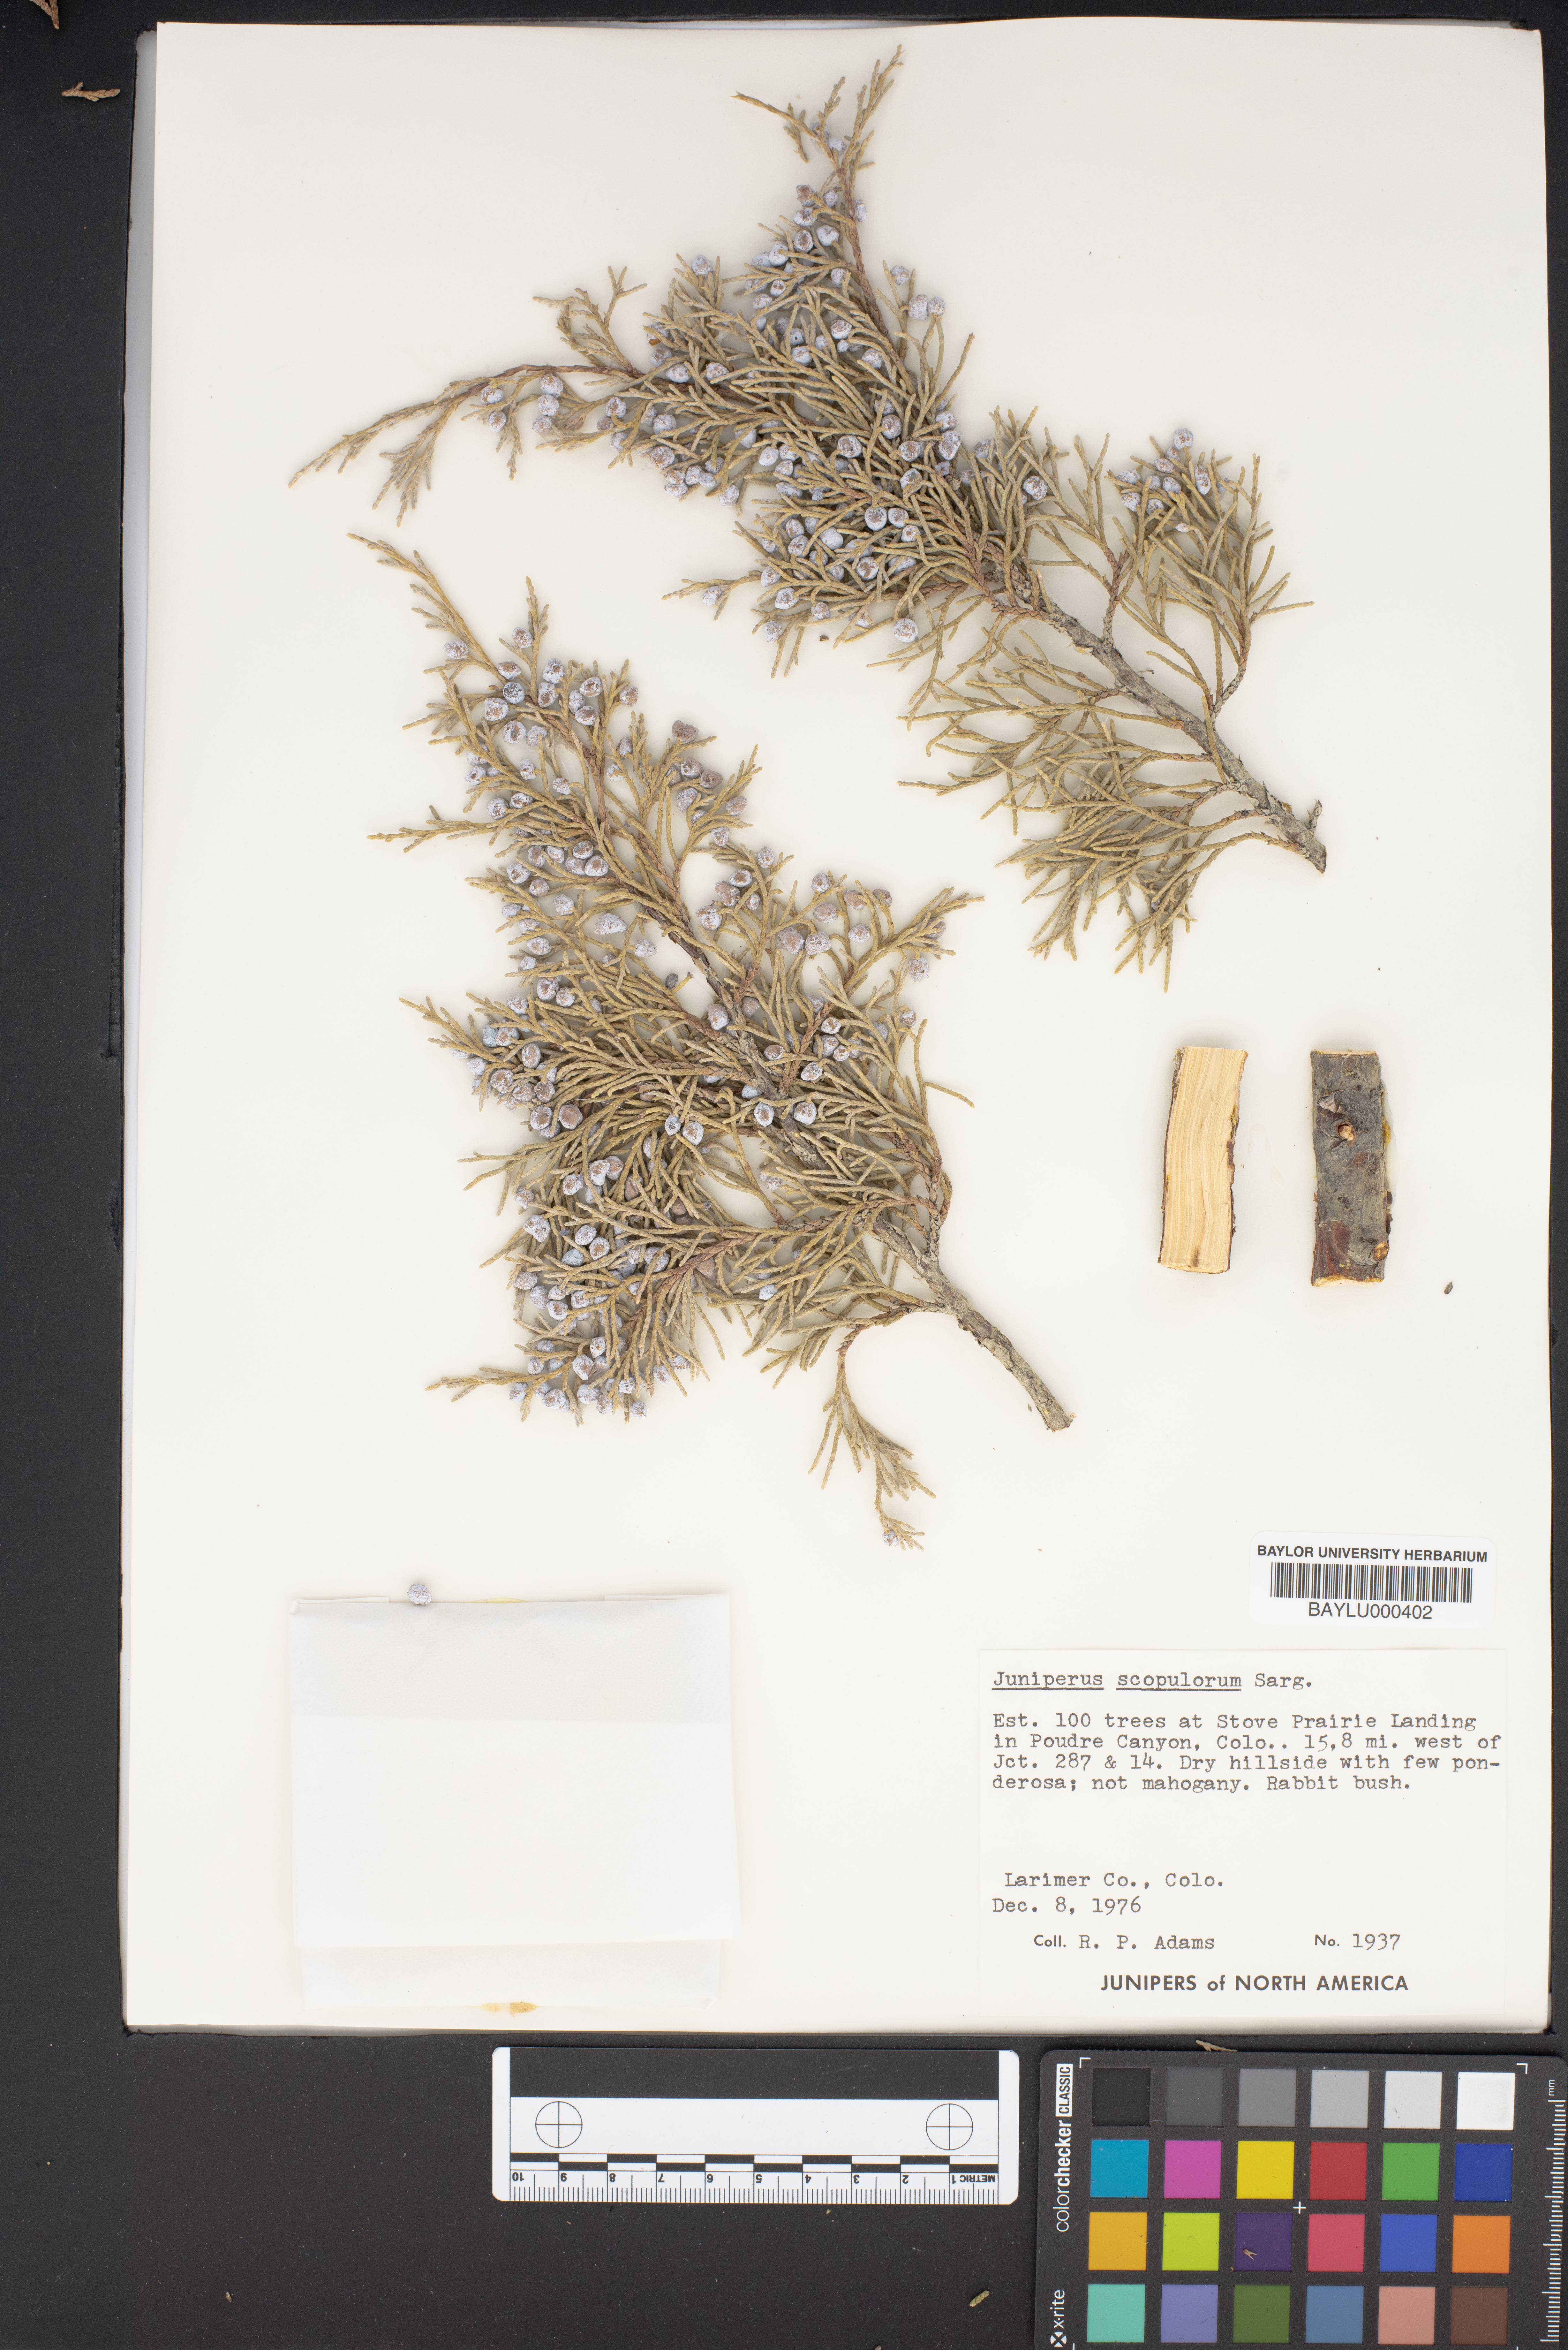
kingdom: Plantae
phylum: Tracheophyta
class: Pinopsida
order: Pinales
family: Cupressaceae
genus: Juniperus
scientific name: Juniperus scopulorum
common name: Rocky mountain juniper
